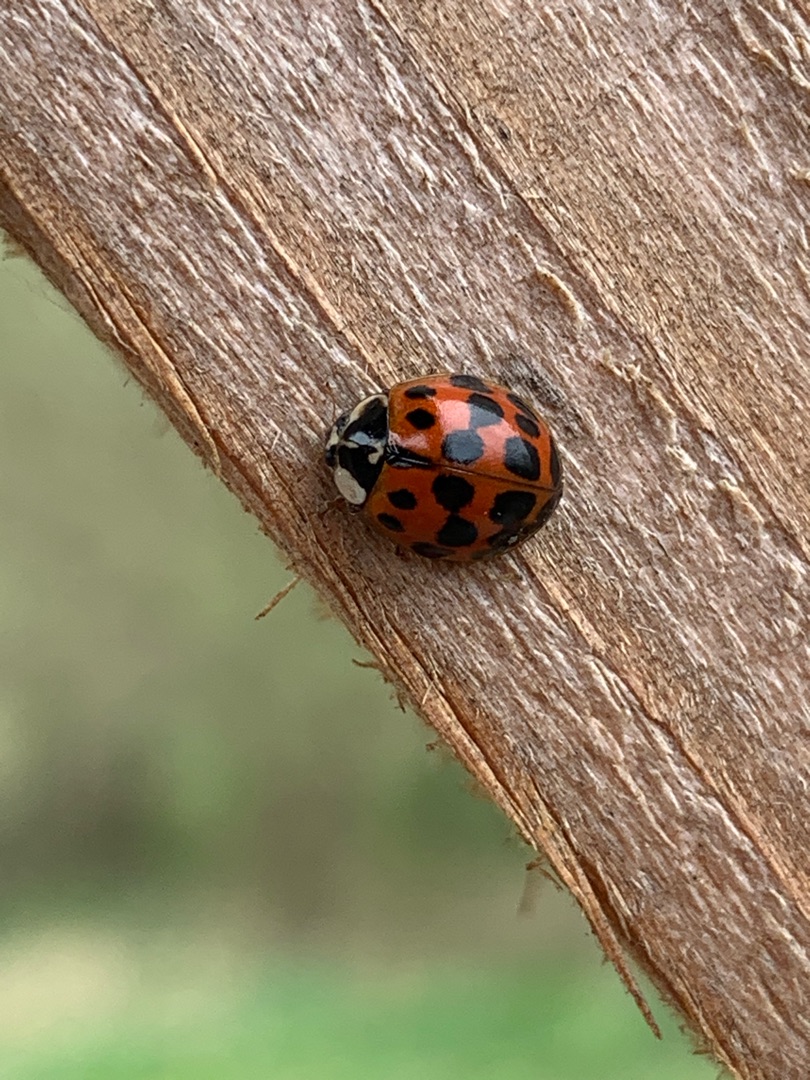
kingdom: Animalia
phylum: Arthropoda
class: Insecta
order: Coleoptera
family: Coccinellidae
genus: Harmonia
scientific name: Harmonia axyridis
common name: Harlekinmariehøne
